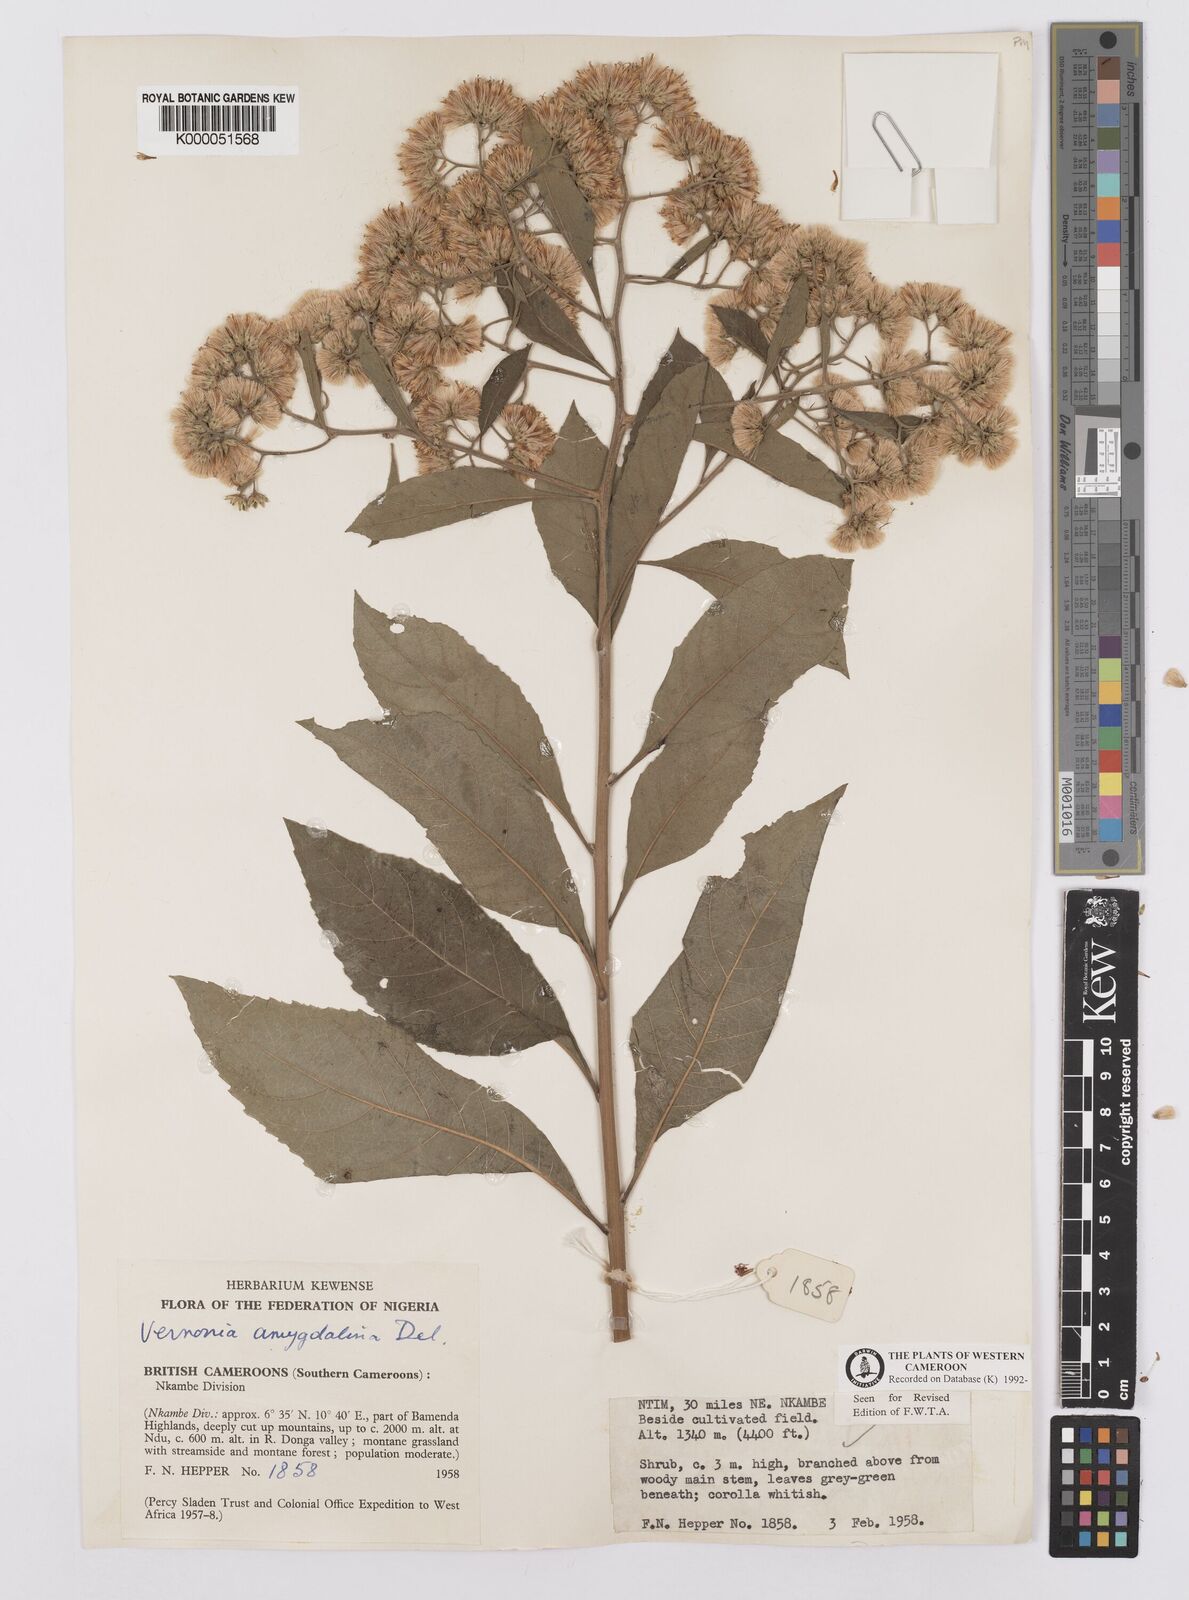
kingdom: Plantae
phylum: Tracheophyta
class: Magnoliopsida
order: Asterales
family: Asteraceae
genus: Gymnanthemum
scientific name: Gymnanthemum amygdalinum
